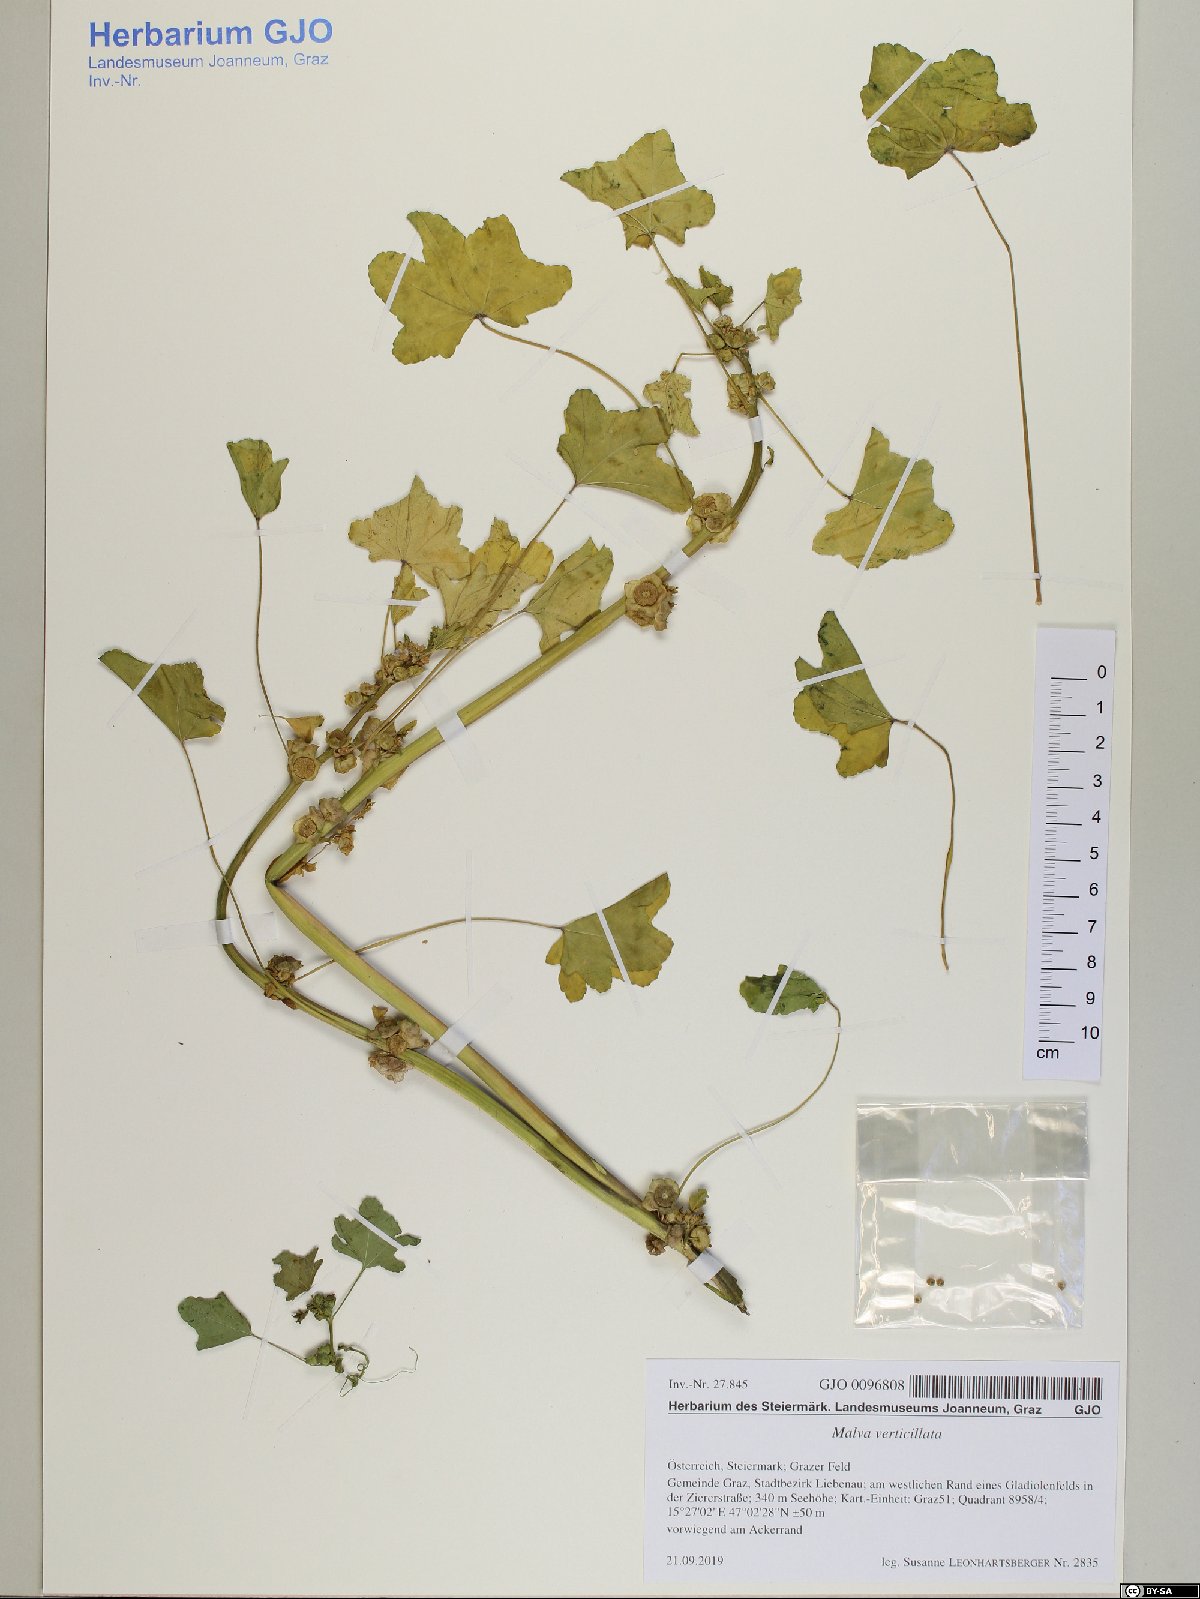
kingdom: Plantae
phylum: Tracheophyta
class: Magnoliopsida
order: Malvales
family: Malvaceae
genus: Malva
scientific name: Malva parviflora
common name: Least mallow
